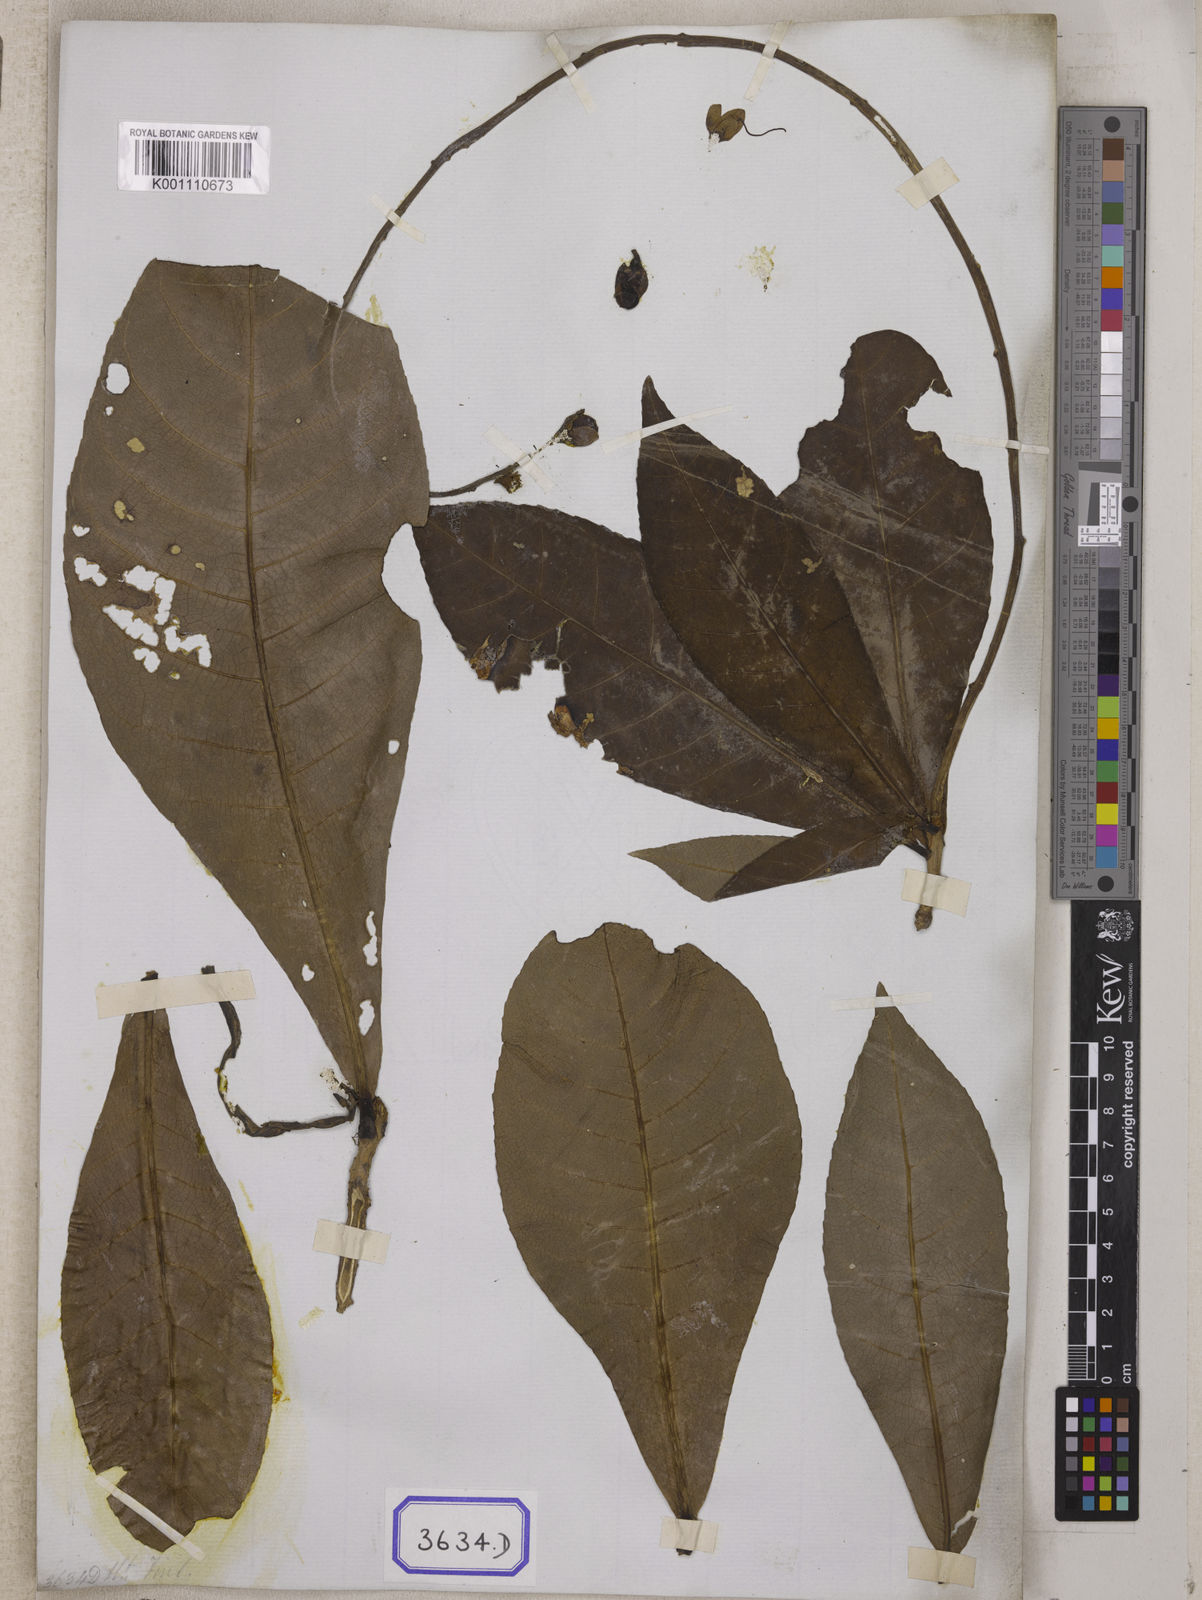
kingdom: Plantae
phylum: Tracheophyta
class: Magnoliopsida
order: Ericales
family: Lecythidaceae
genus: Barringtonia
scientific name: Barringtonia
